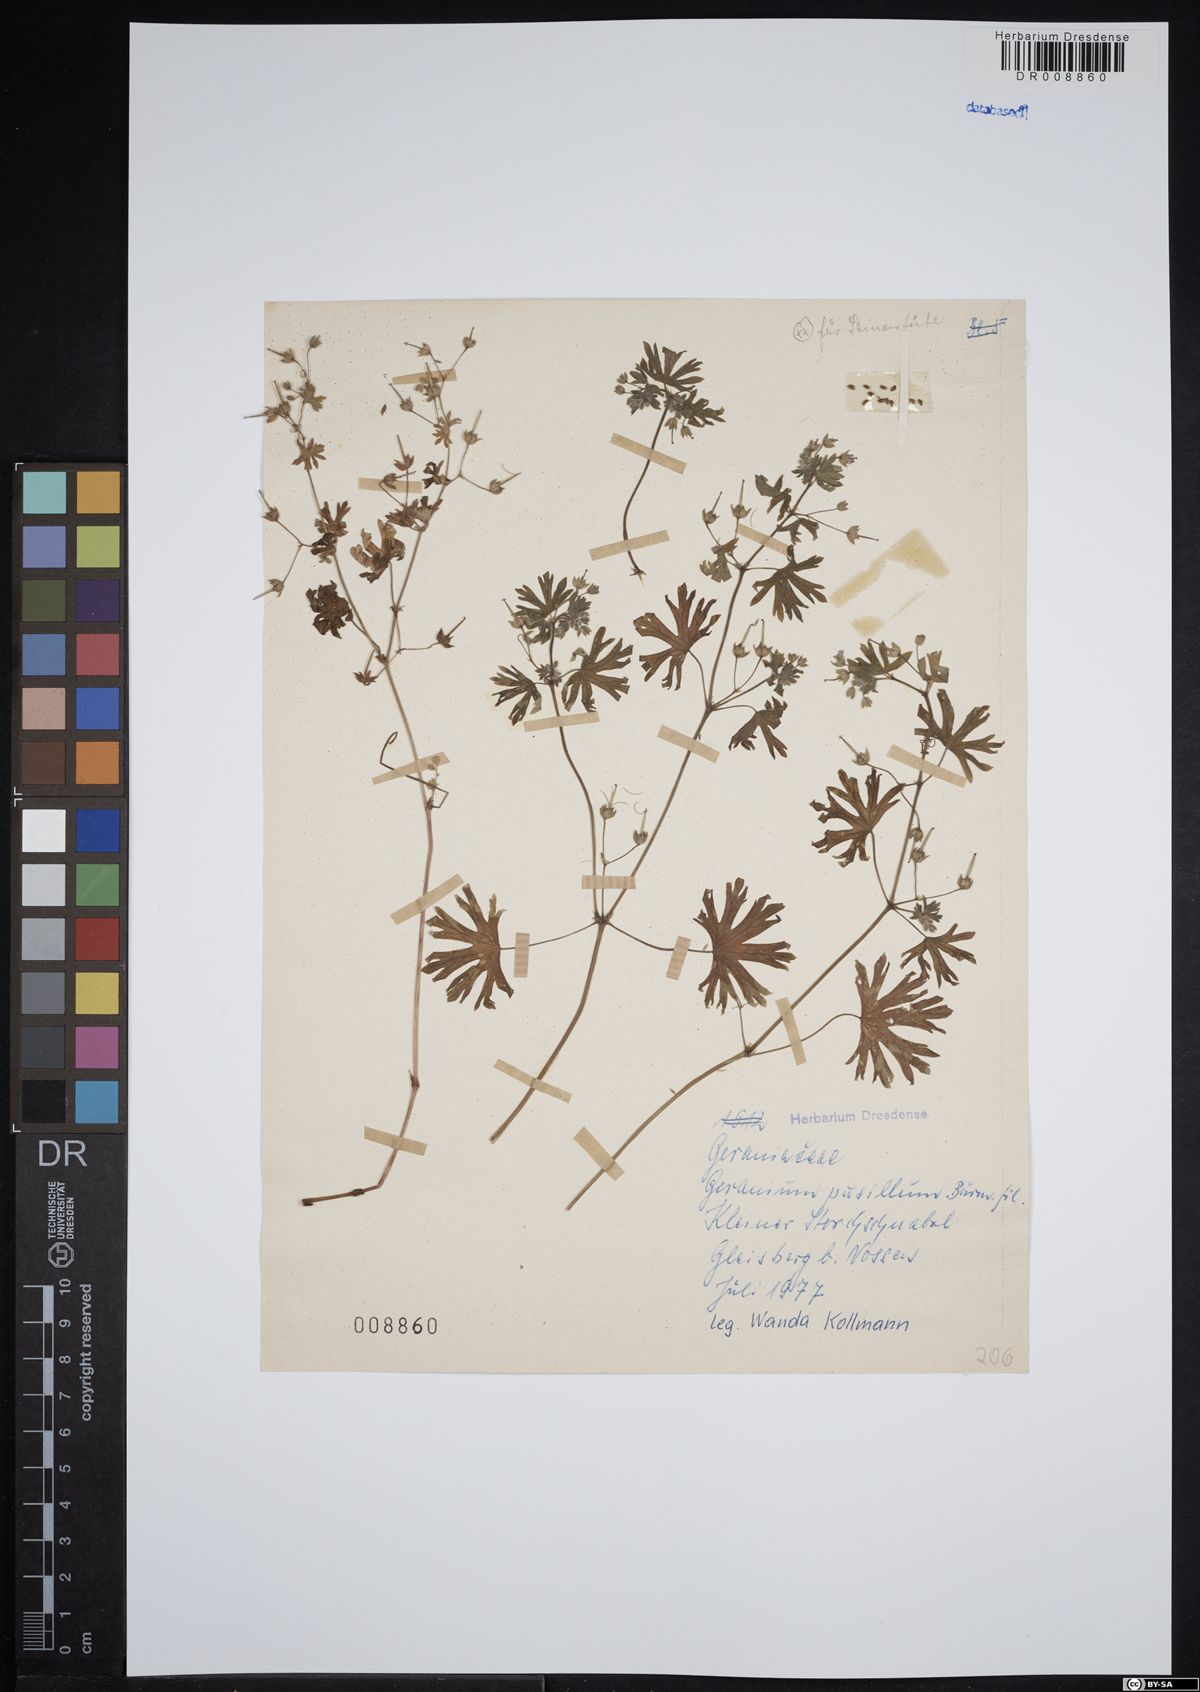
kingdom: Plantae
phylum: Tracheophyta
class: Magnoliopsida
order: Geraniales
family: Geraniaceae
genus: Geranium
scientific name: Geranium pusillum
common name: Small geranium
